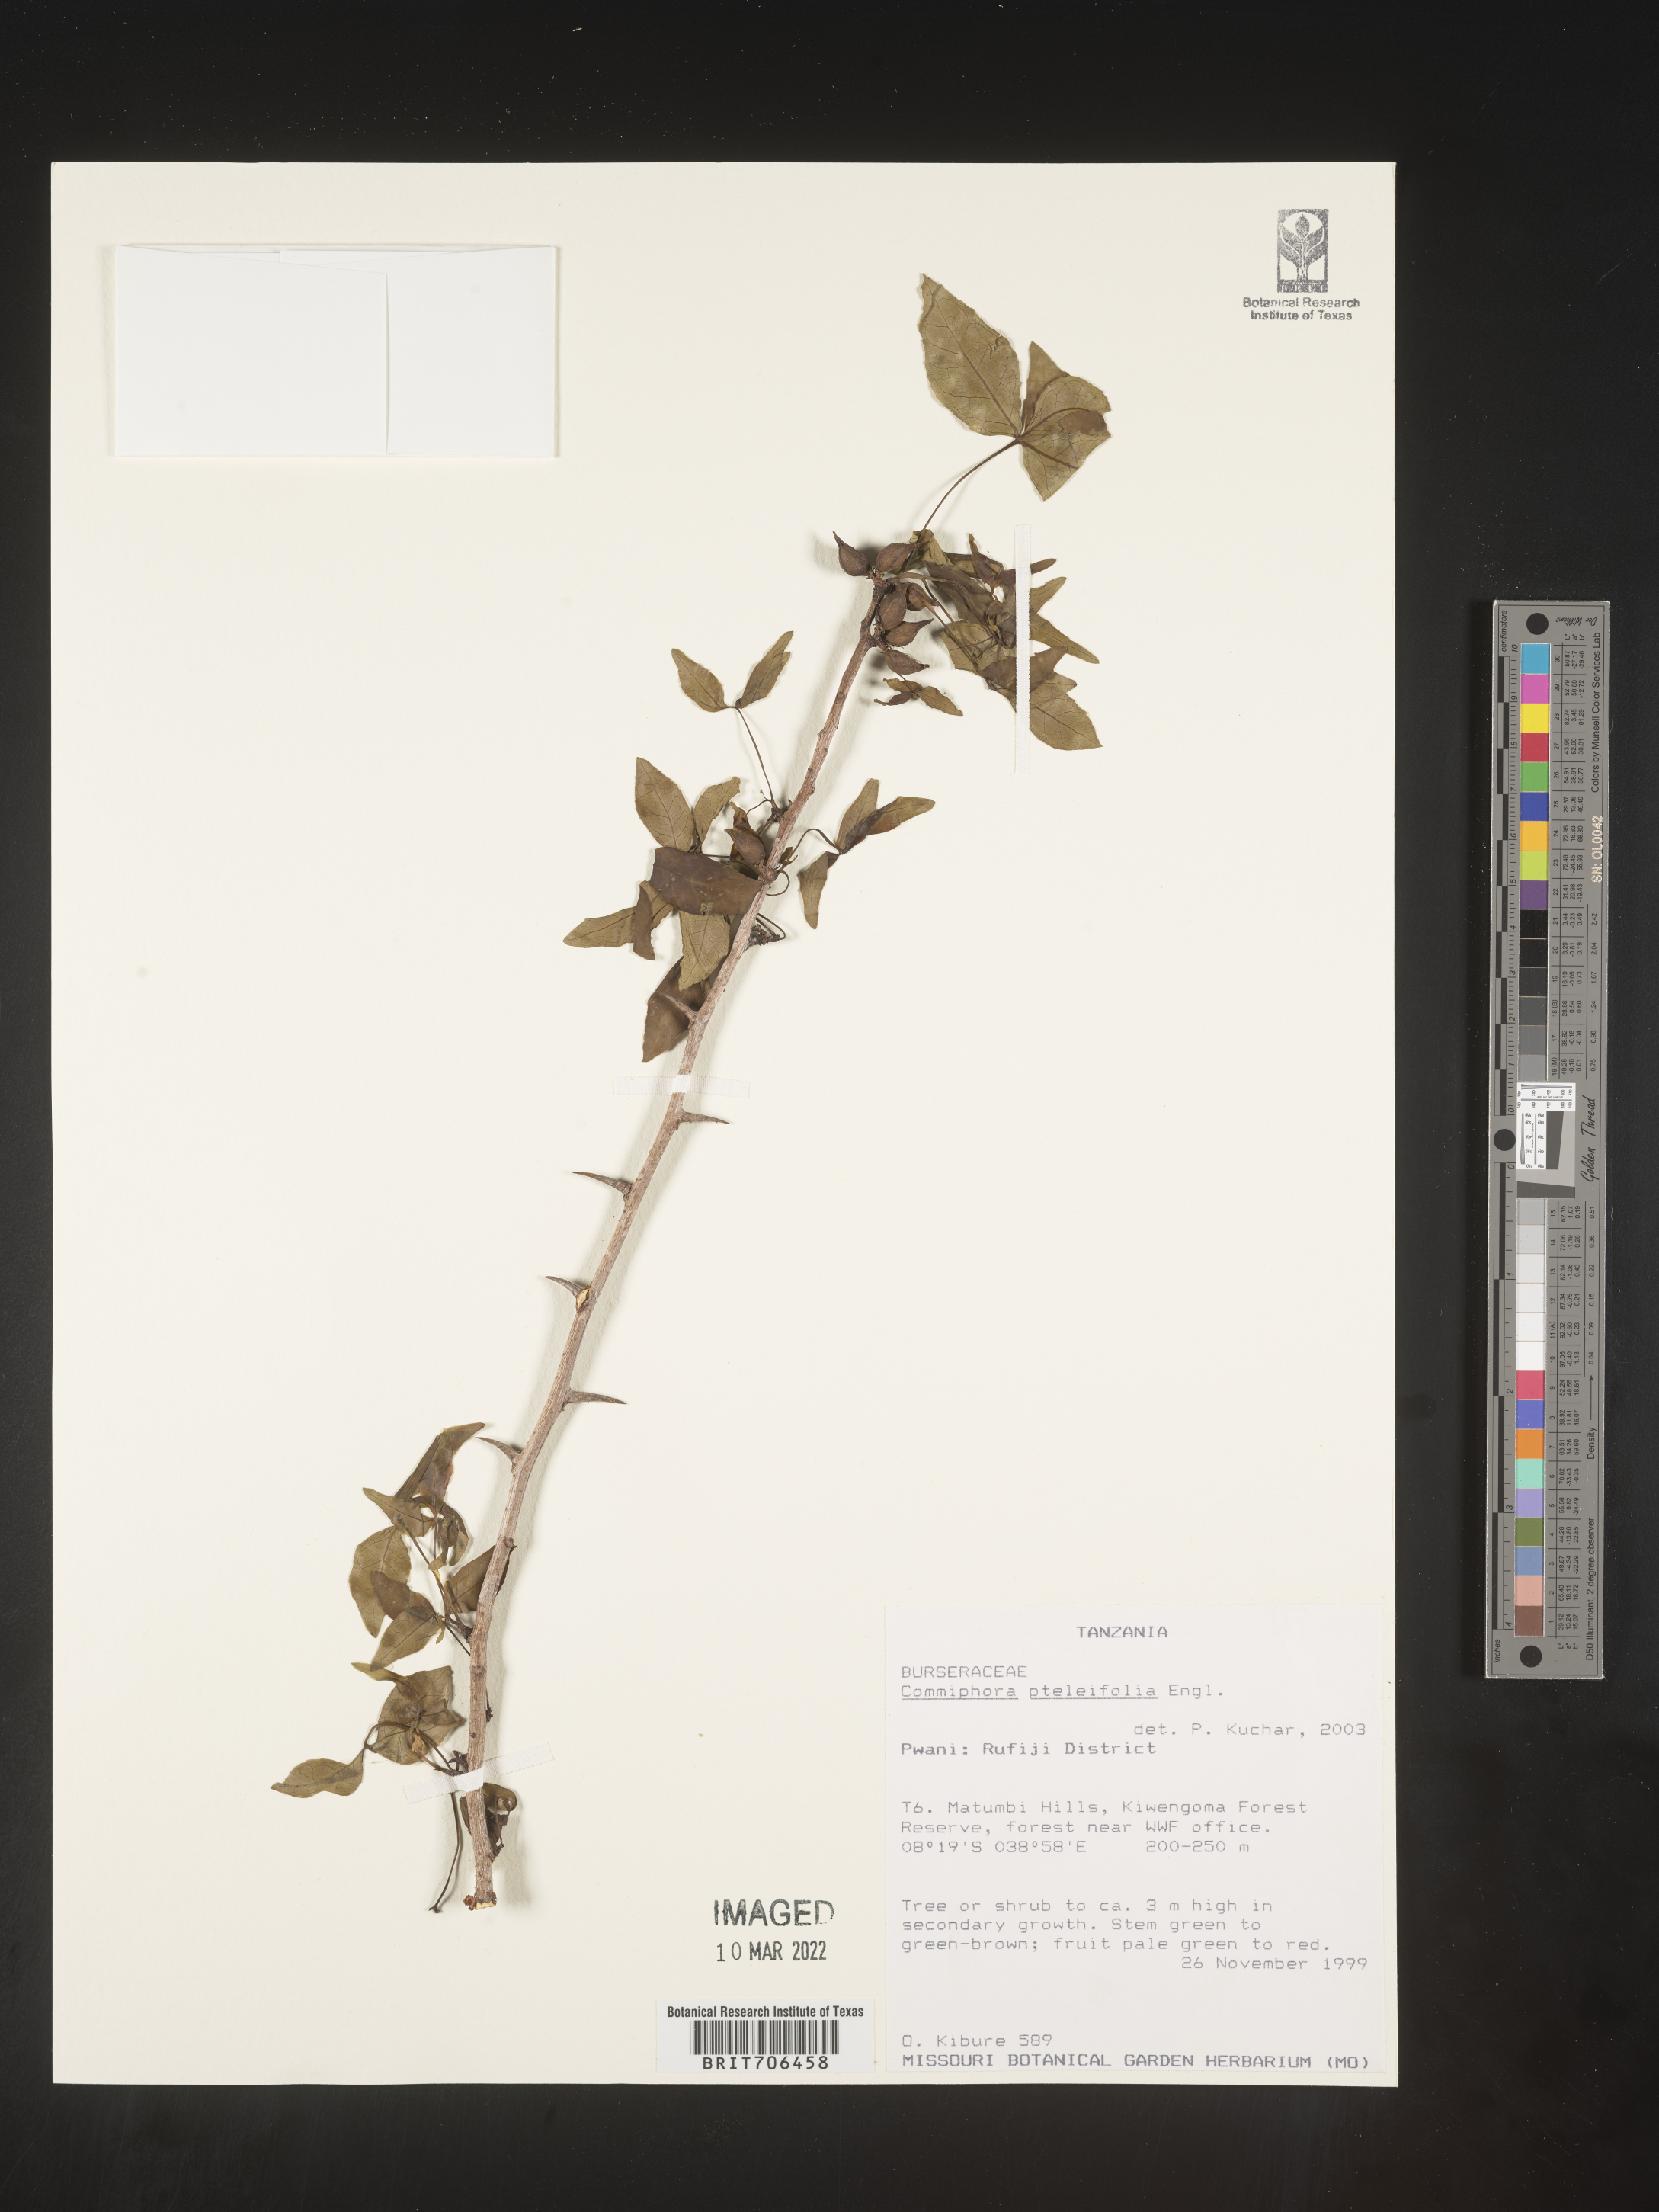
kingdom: Plantae
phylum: Tracheophyta
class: Magnoliopsida
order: Sapindales
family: Burseraceae
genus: Commiphora
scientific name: Commiphora
